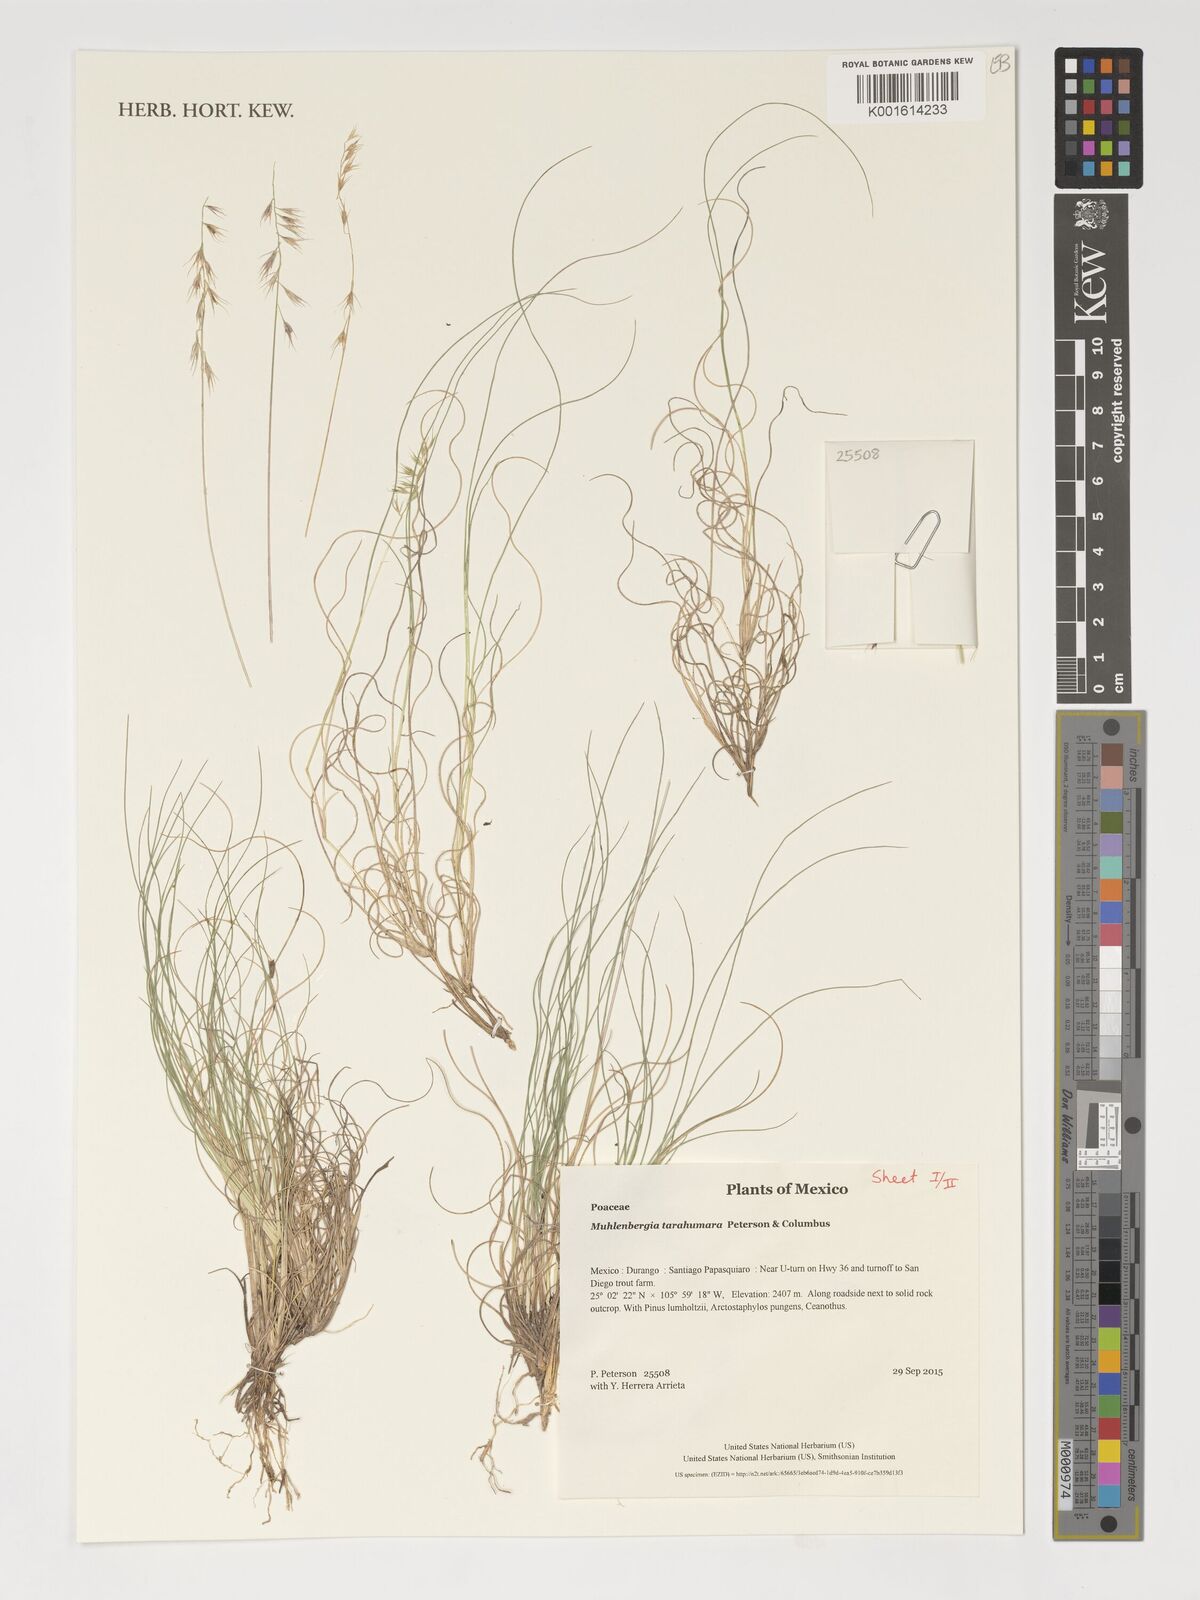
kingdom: Plantae
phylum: Tracheophyta
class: Liliopsida
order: Poales
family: Poaceae
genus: Muhlenbergia
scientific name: Muhlenbergia tarahumara
